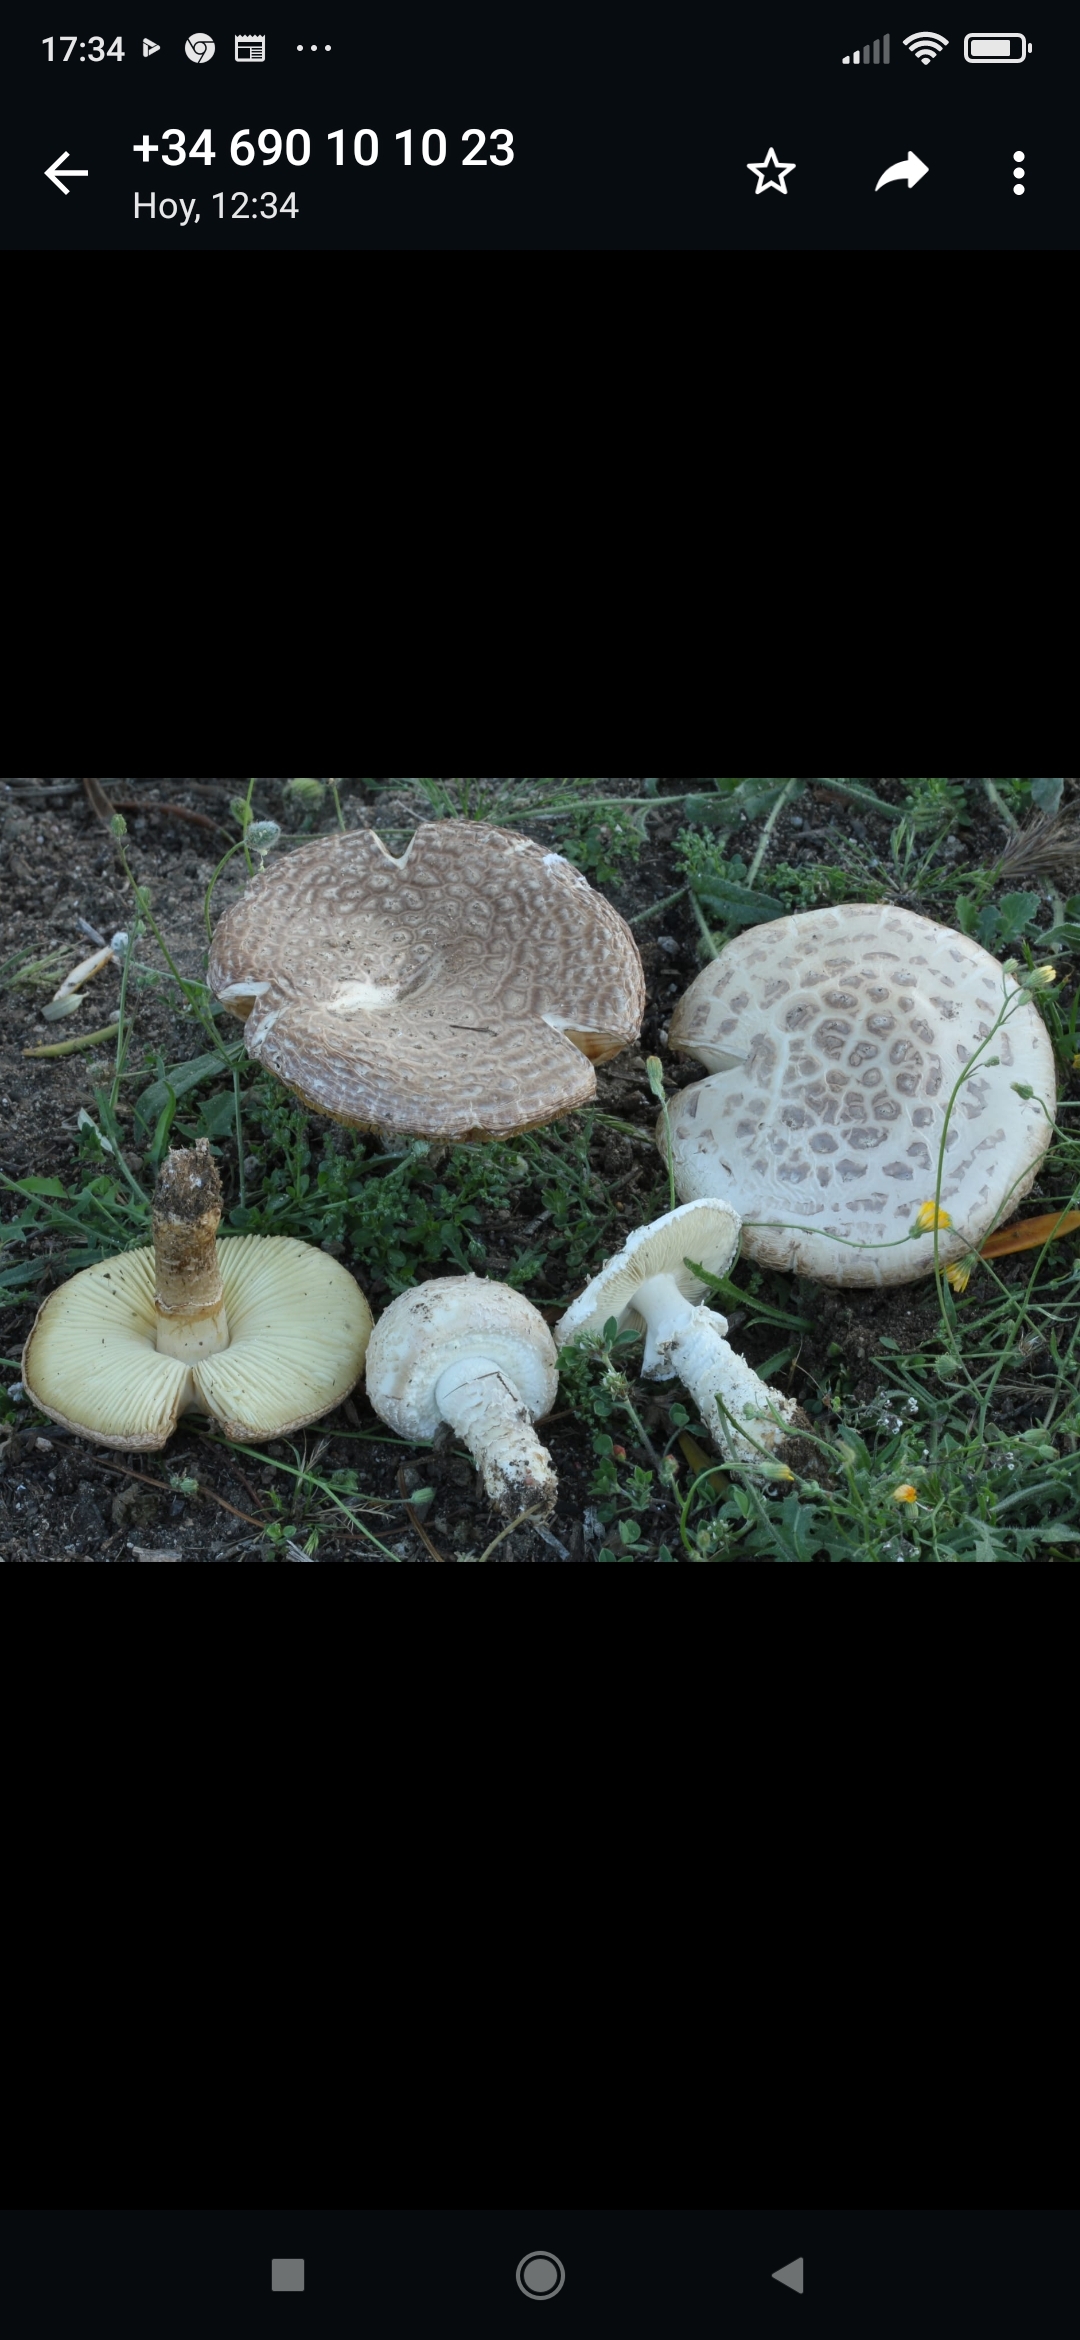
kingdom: Fungi
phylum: Basidiomycota
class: Agaricomycetes
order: Agaricales
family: Amanitaceae
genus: Amanita
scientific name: Amanita vittadinii
